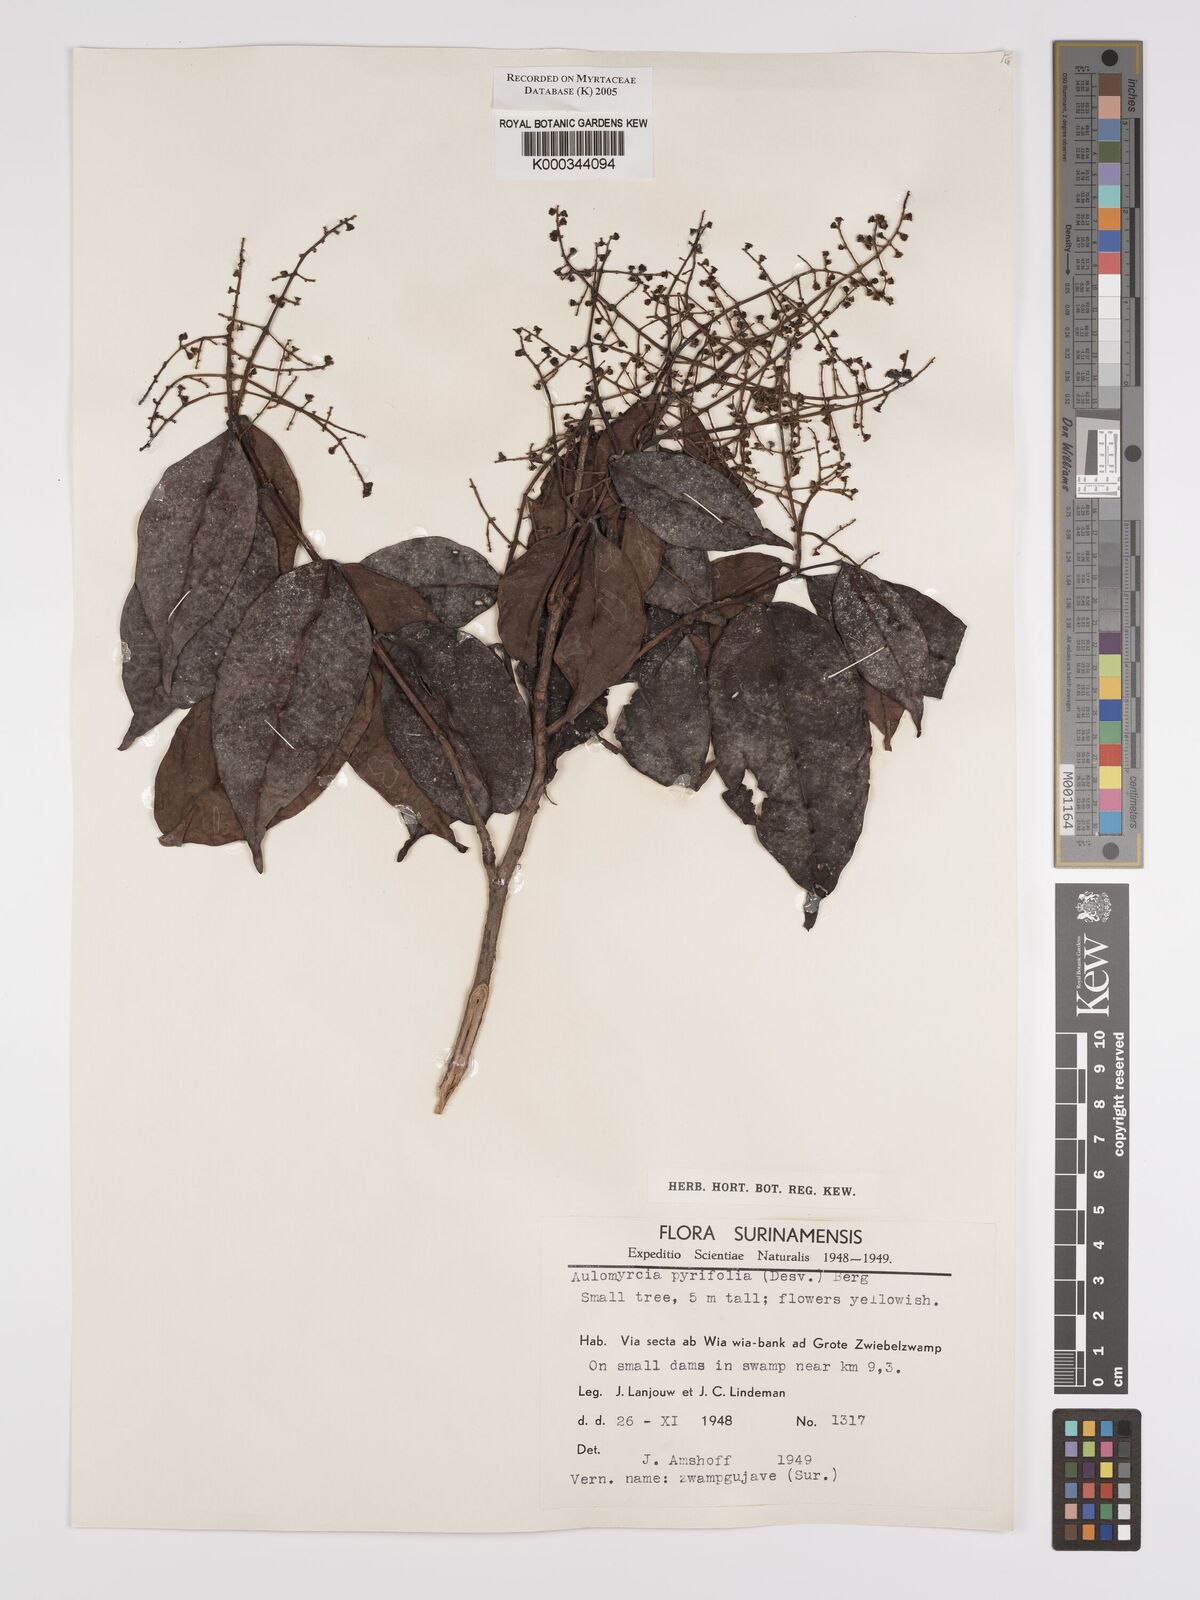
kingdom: Plantae
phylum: Tracheophyta
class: Magnoliopsida
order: Myrtales
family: Myrtaceae
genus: Myrcia
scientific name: Myrcia pyrifolia
